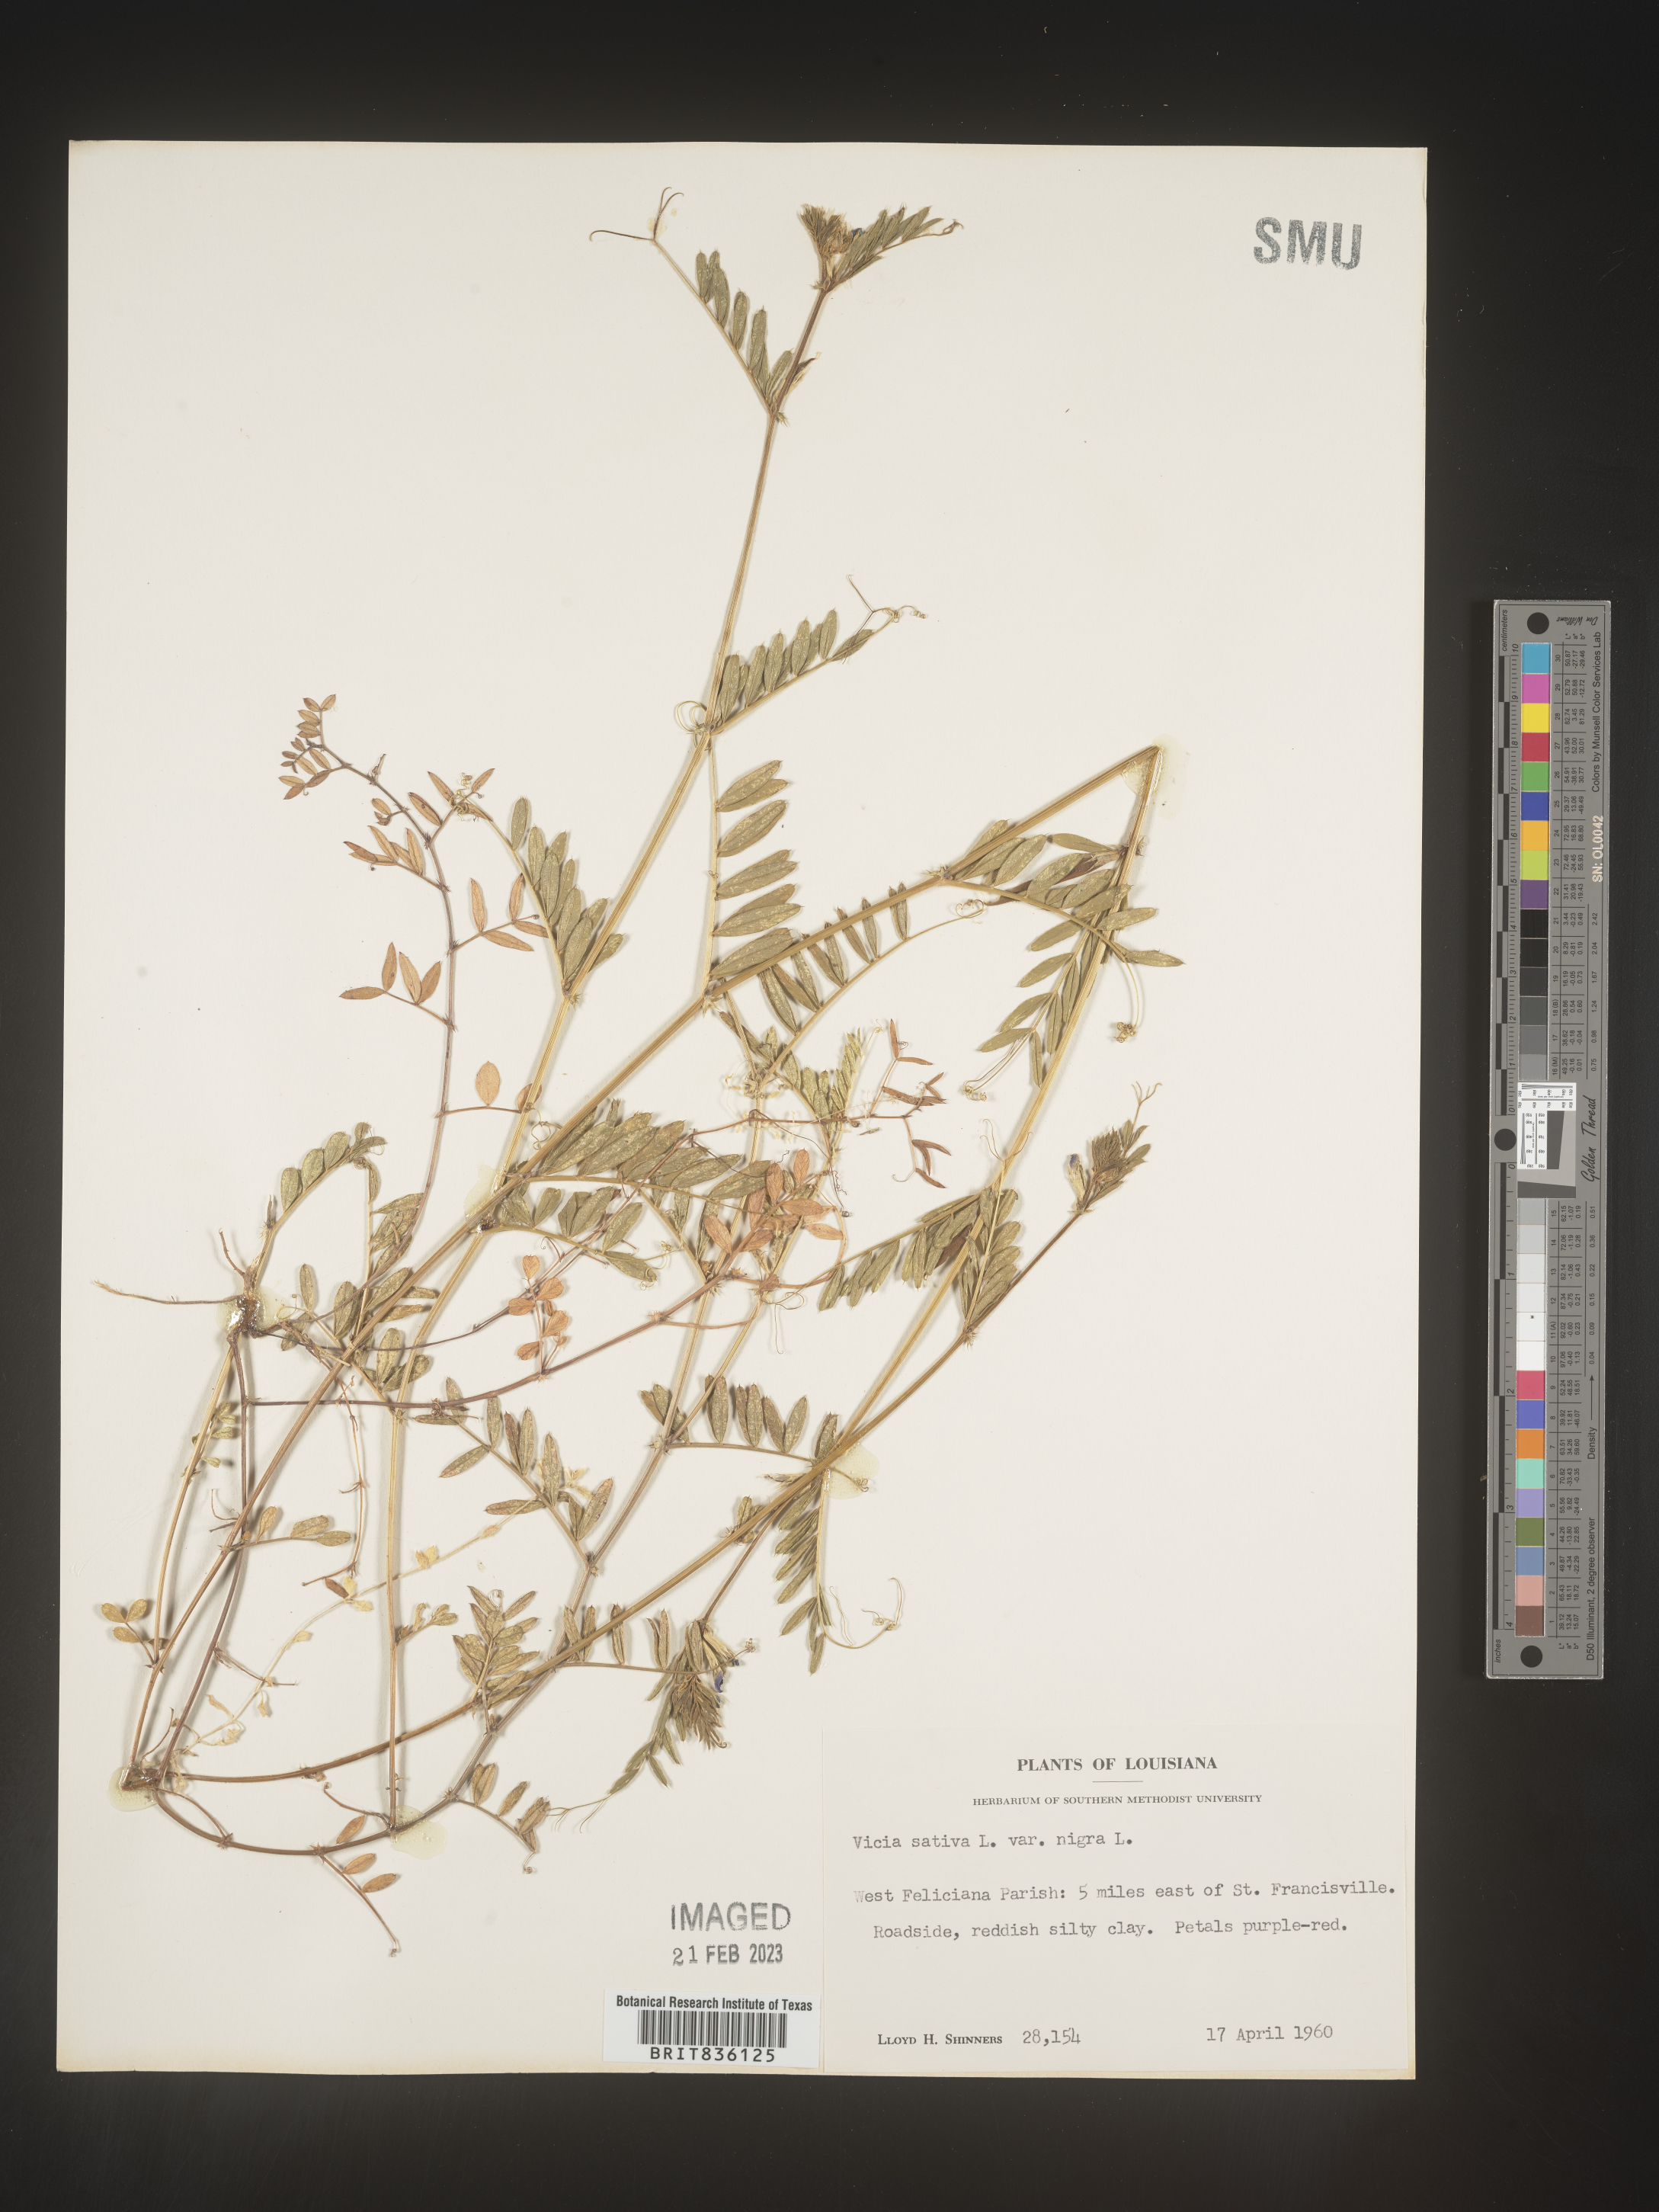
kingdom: Plantae
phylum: Tracheophyta
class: Magnoliopsida
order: Fabales
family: Fabaceae
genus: Vicia
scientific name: Vicia sativa
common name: Garden vetch
